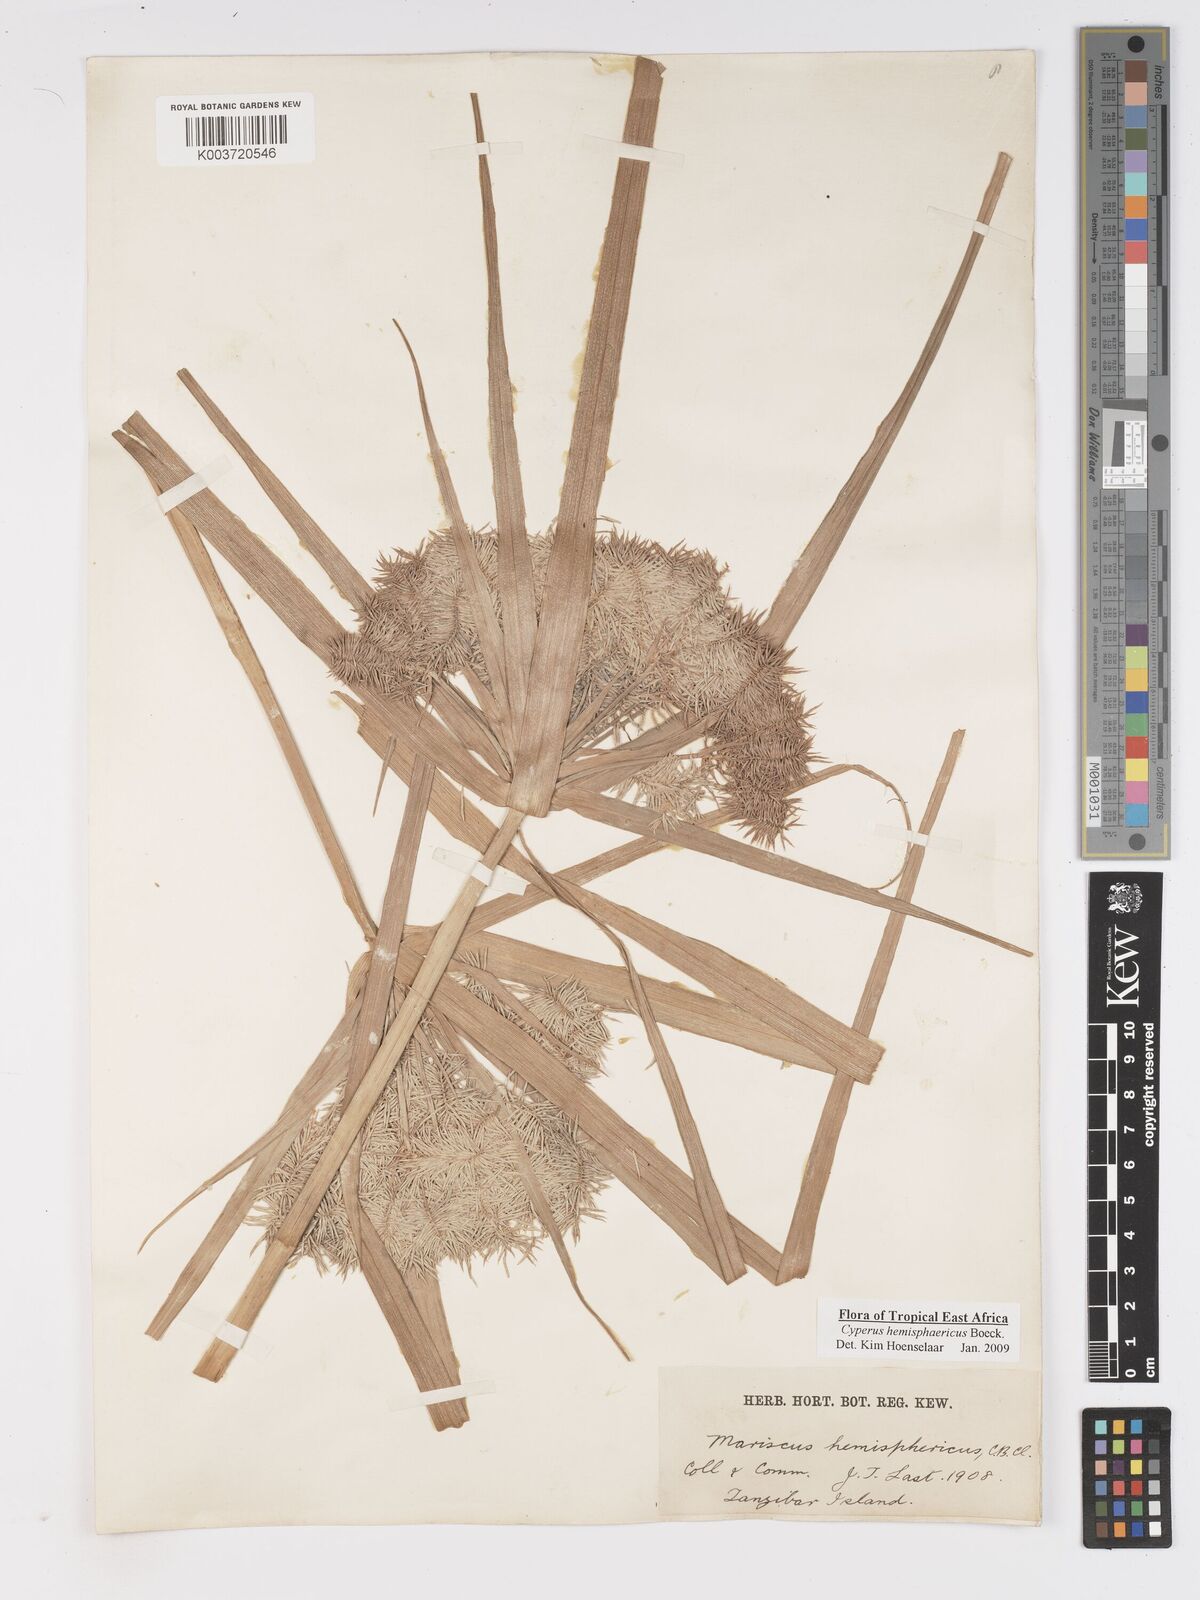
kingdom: Plantae
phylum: Tracheophyta
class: Liliopsida
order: Poales
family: Cyperaceae
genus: Cyperus
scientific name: Cyperus hemisphaericus
